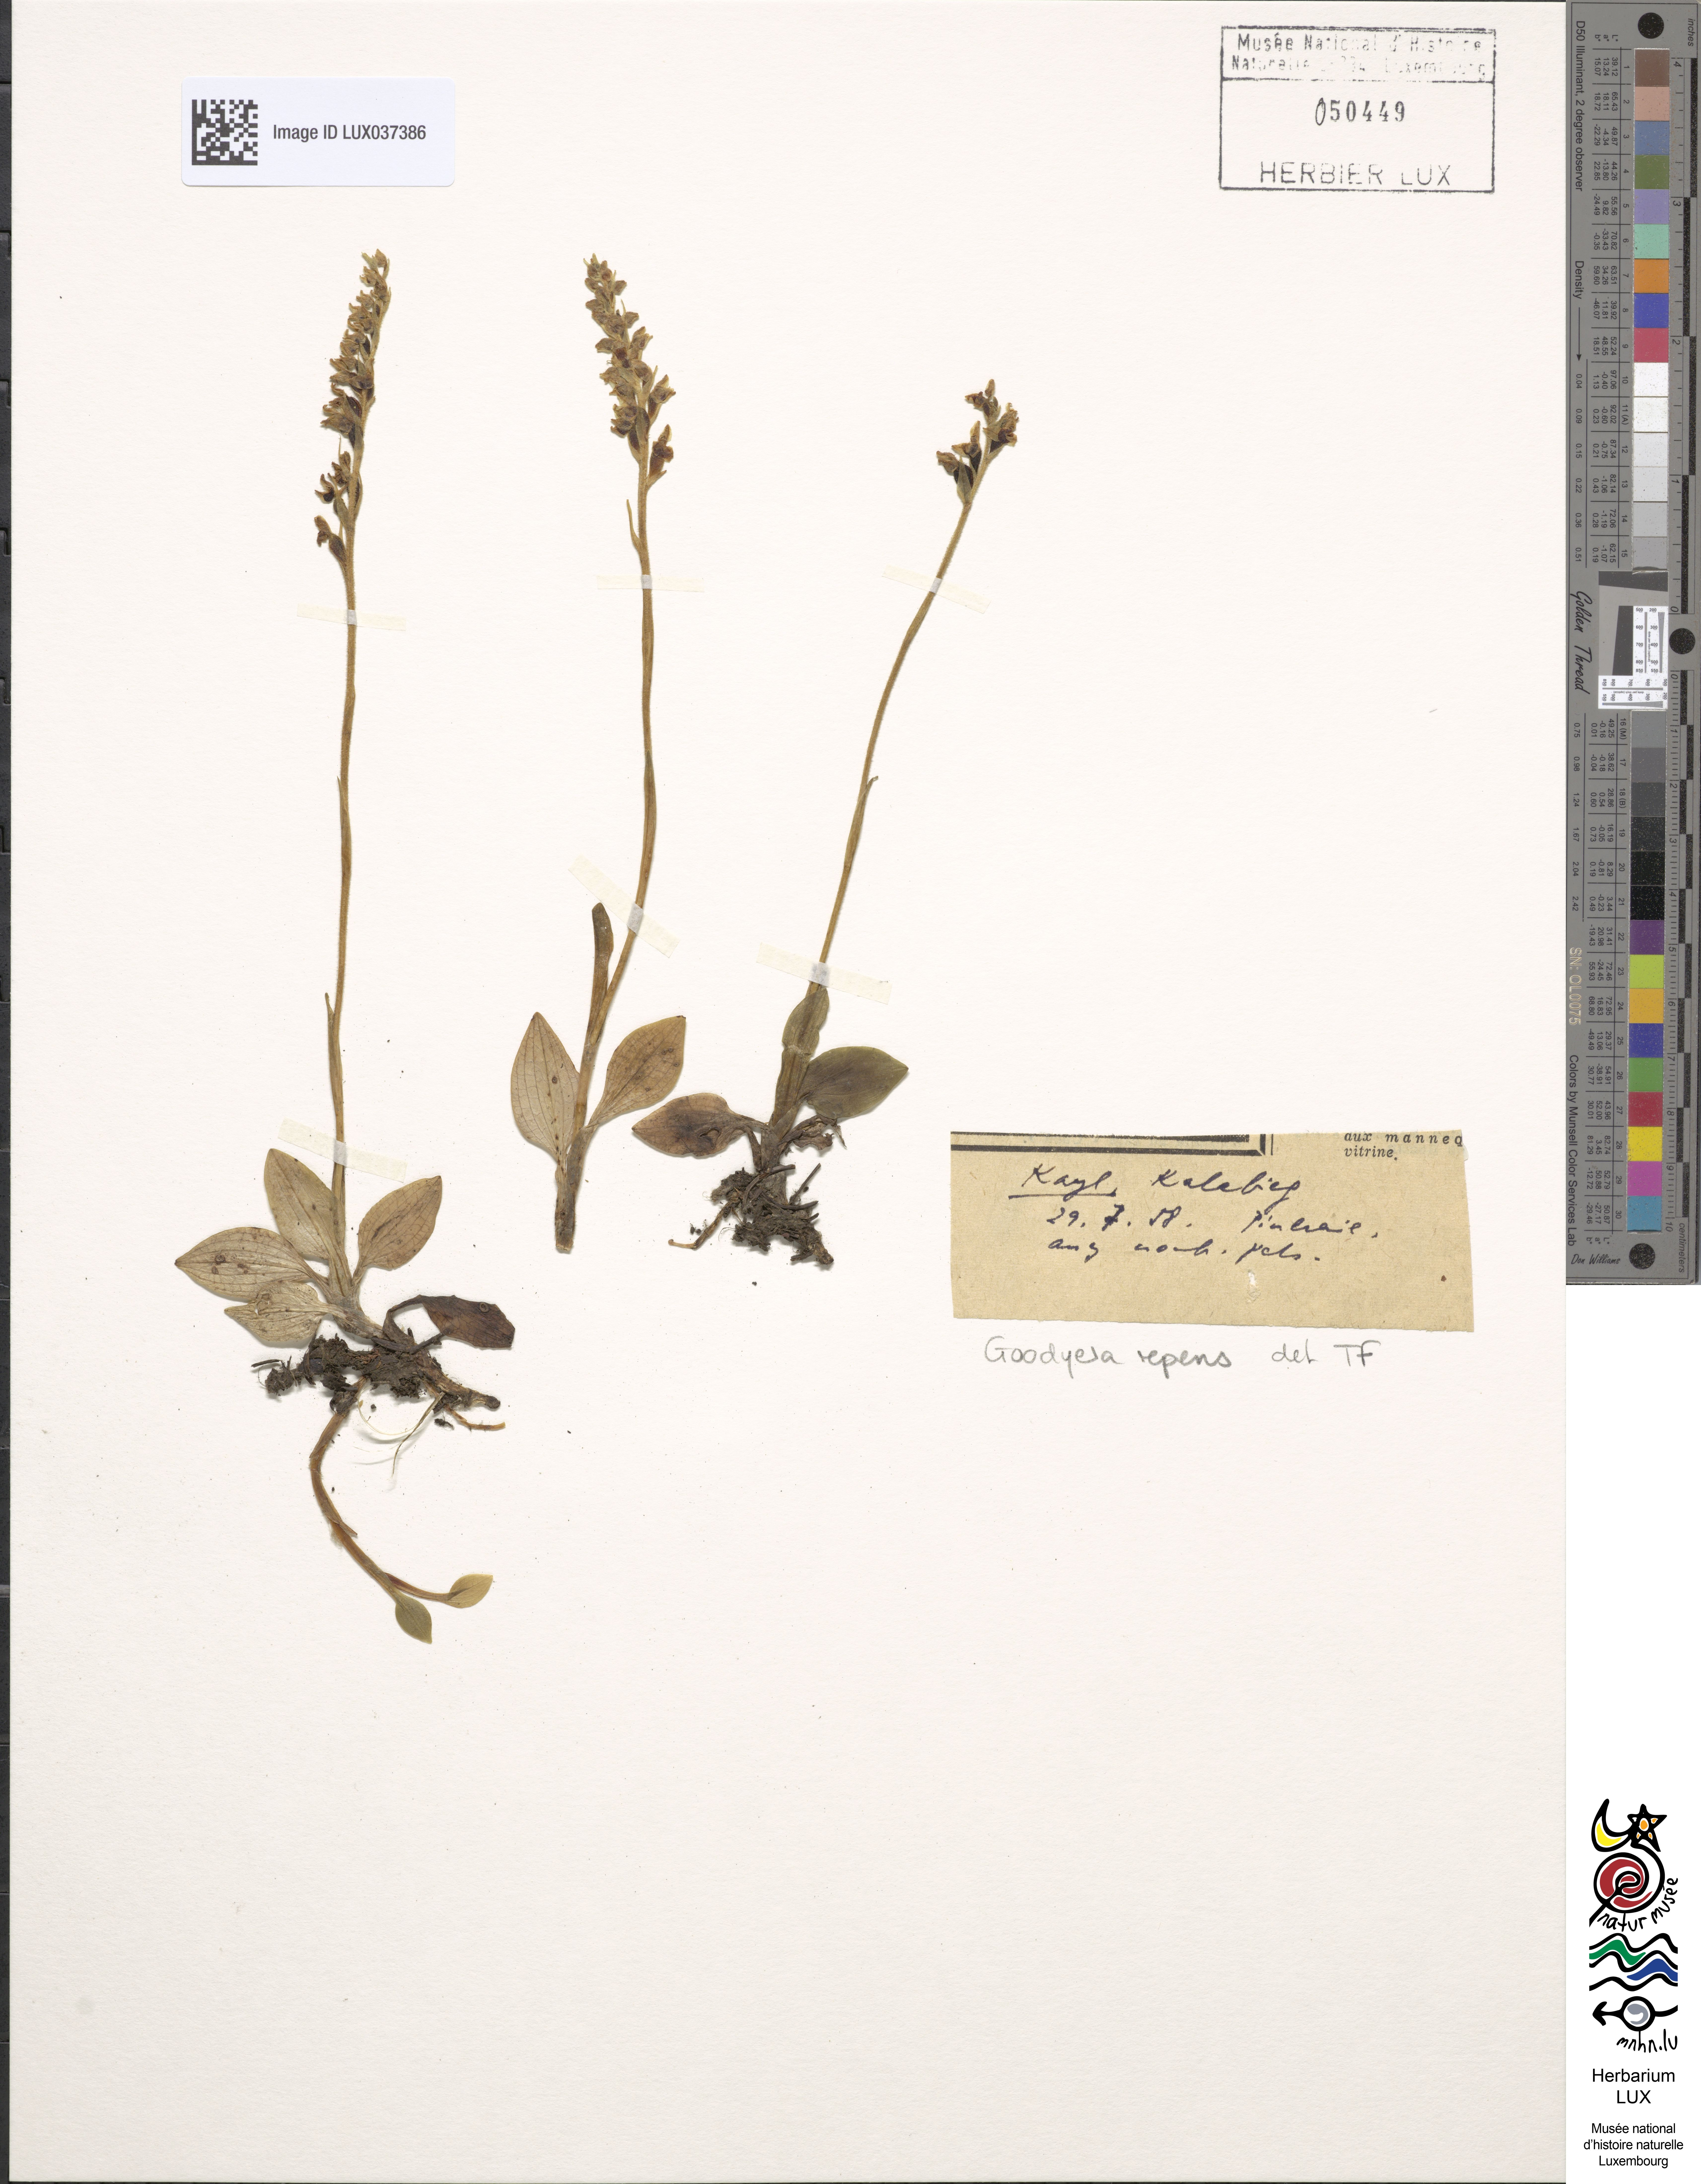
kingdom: Plantae
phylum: Tracheophyta
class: Liliopsida
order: Asparagales
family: Orchidaceae
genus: Goodyera
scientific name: Goodyera repens
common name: Creeping lady's-tresses
